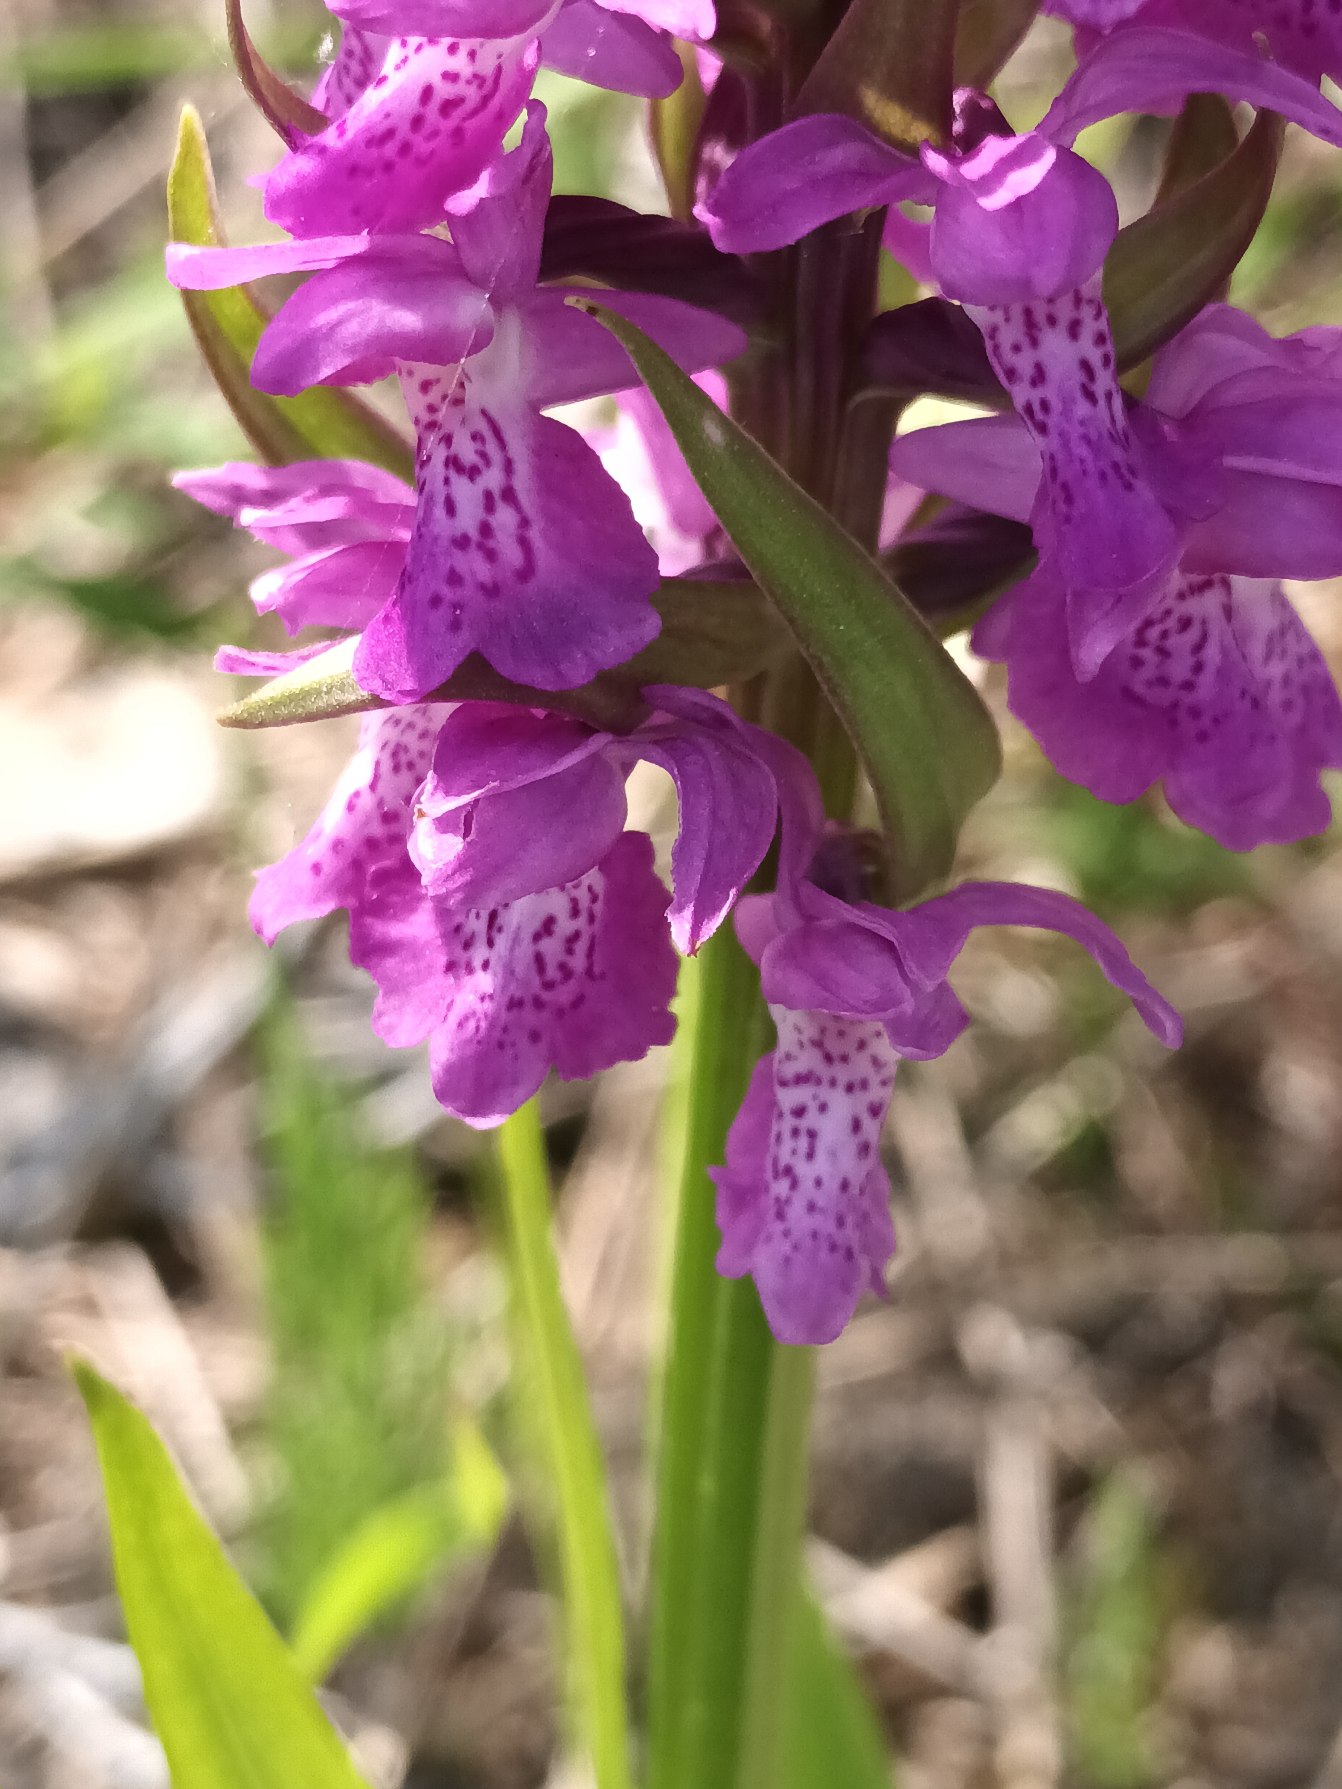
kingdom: Plantae
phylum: Tracheophyta
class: Liliopsida
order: Asparagales
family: Orchidaceae
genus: Dactylorhiza
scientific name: Dactylorhiza majalis
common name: Priklæbet gøgeurt
